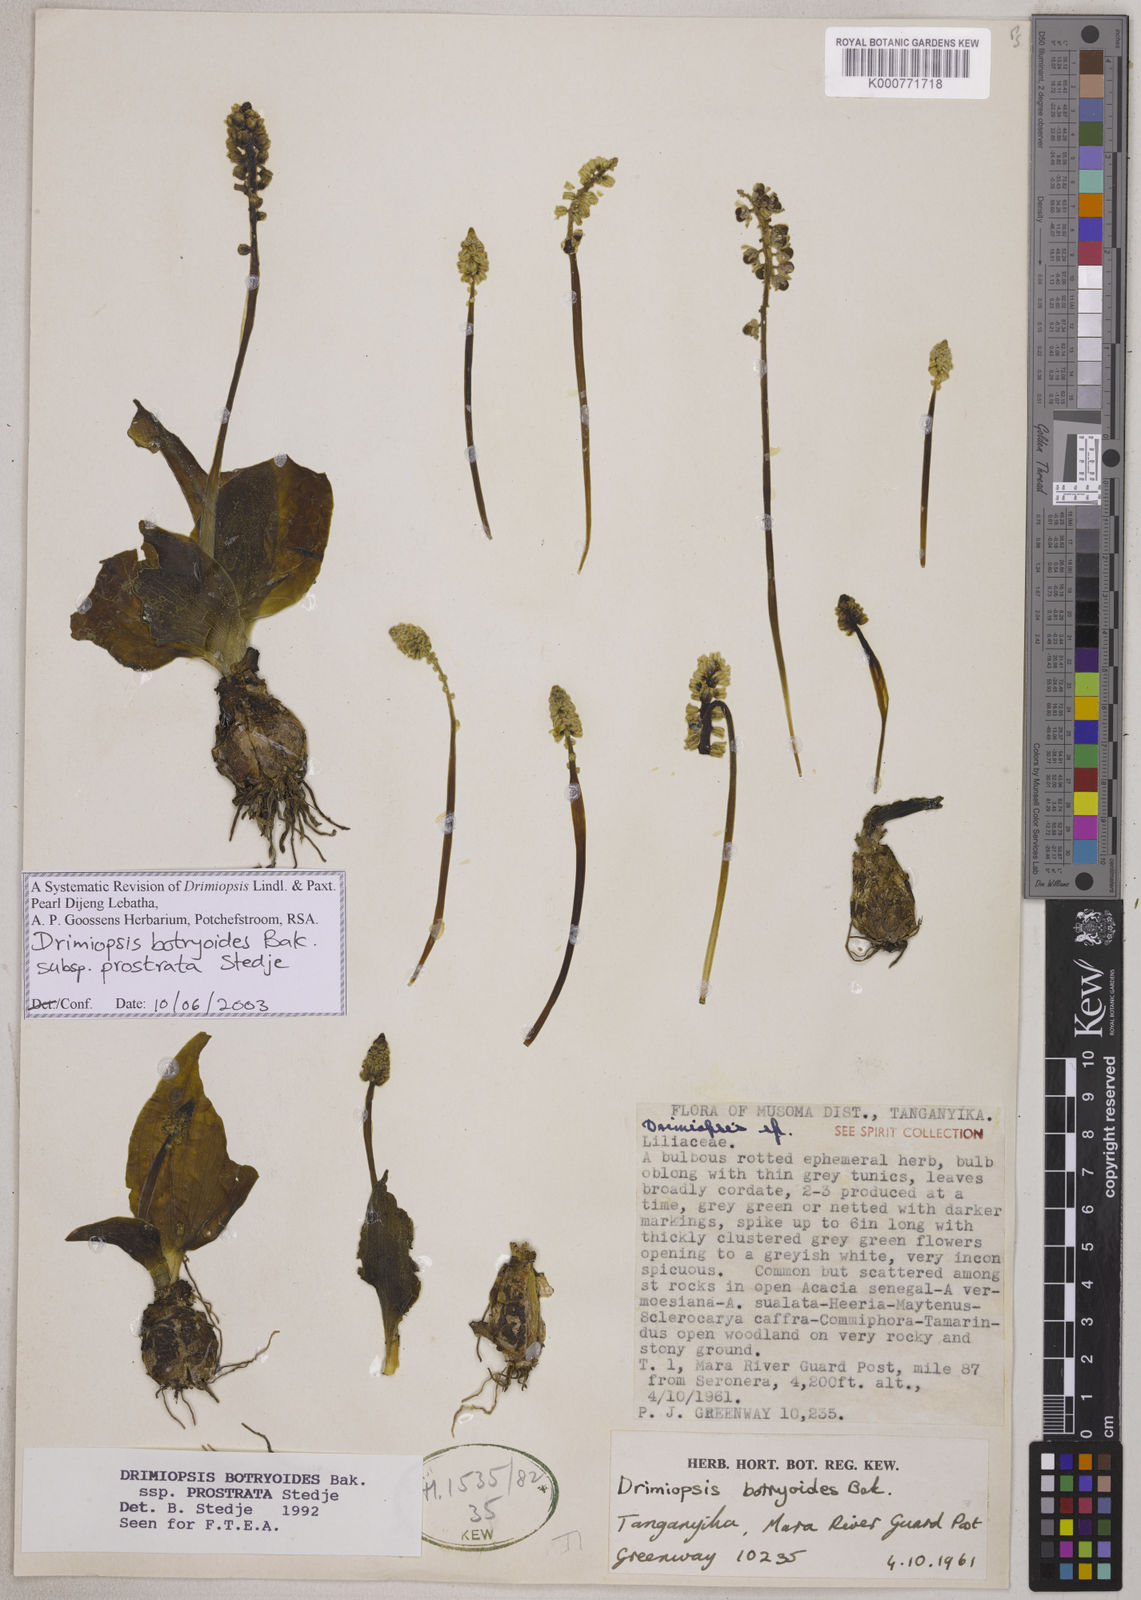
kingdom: Plantae
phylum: Tracheophyta
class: Liliopsida
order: Asparagales
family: Asparagaceae
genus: Drimiopsis
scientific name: Drimiopsis botryoides
